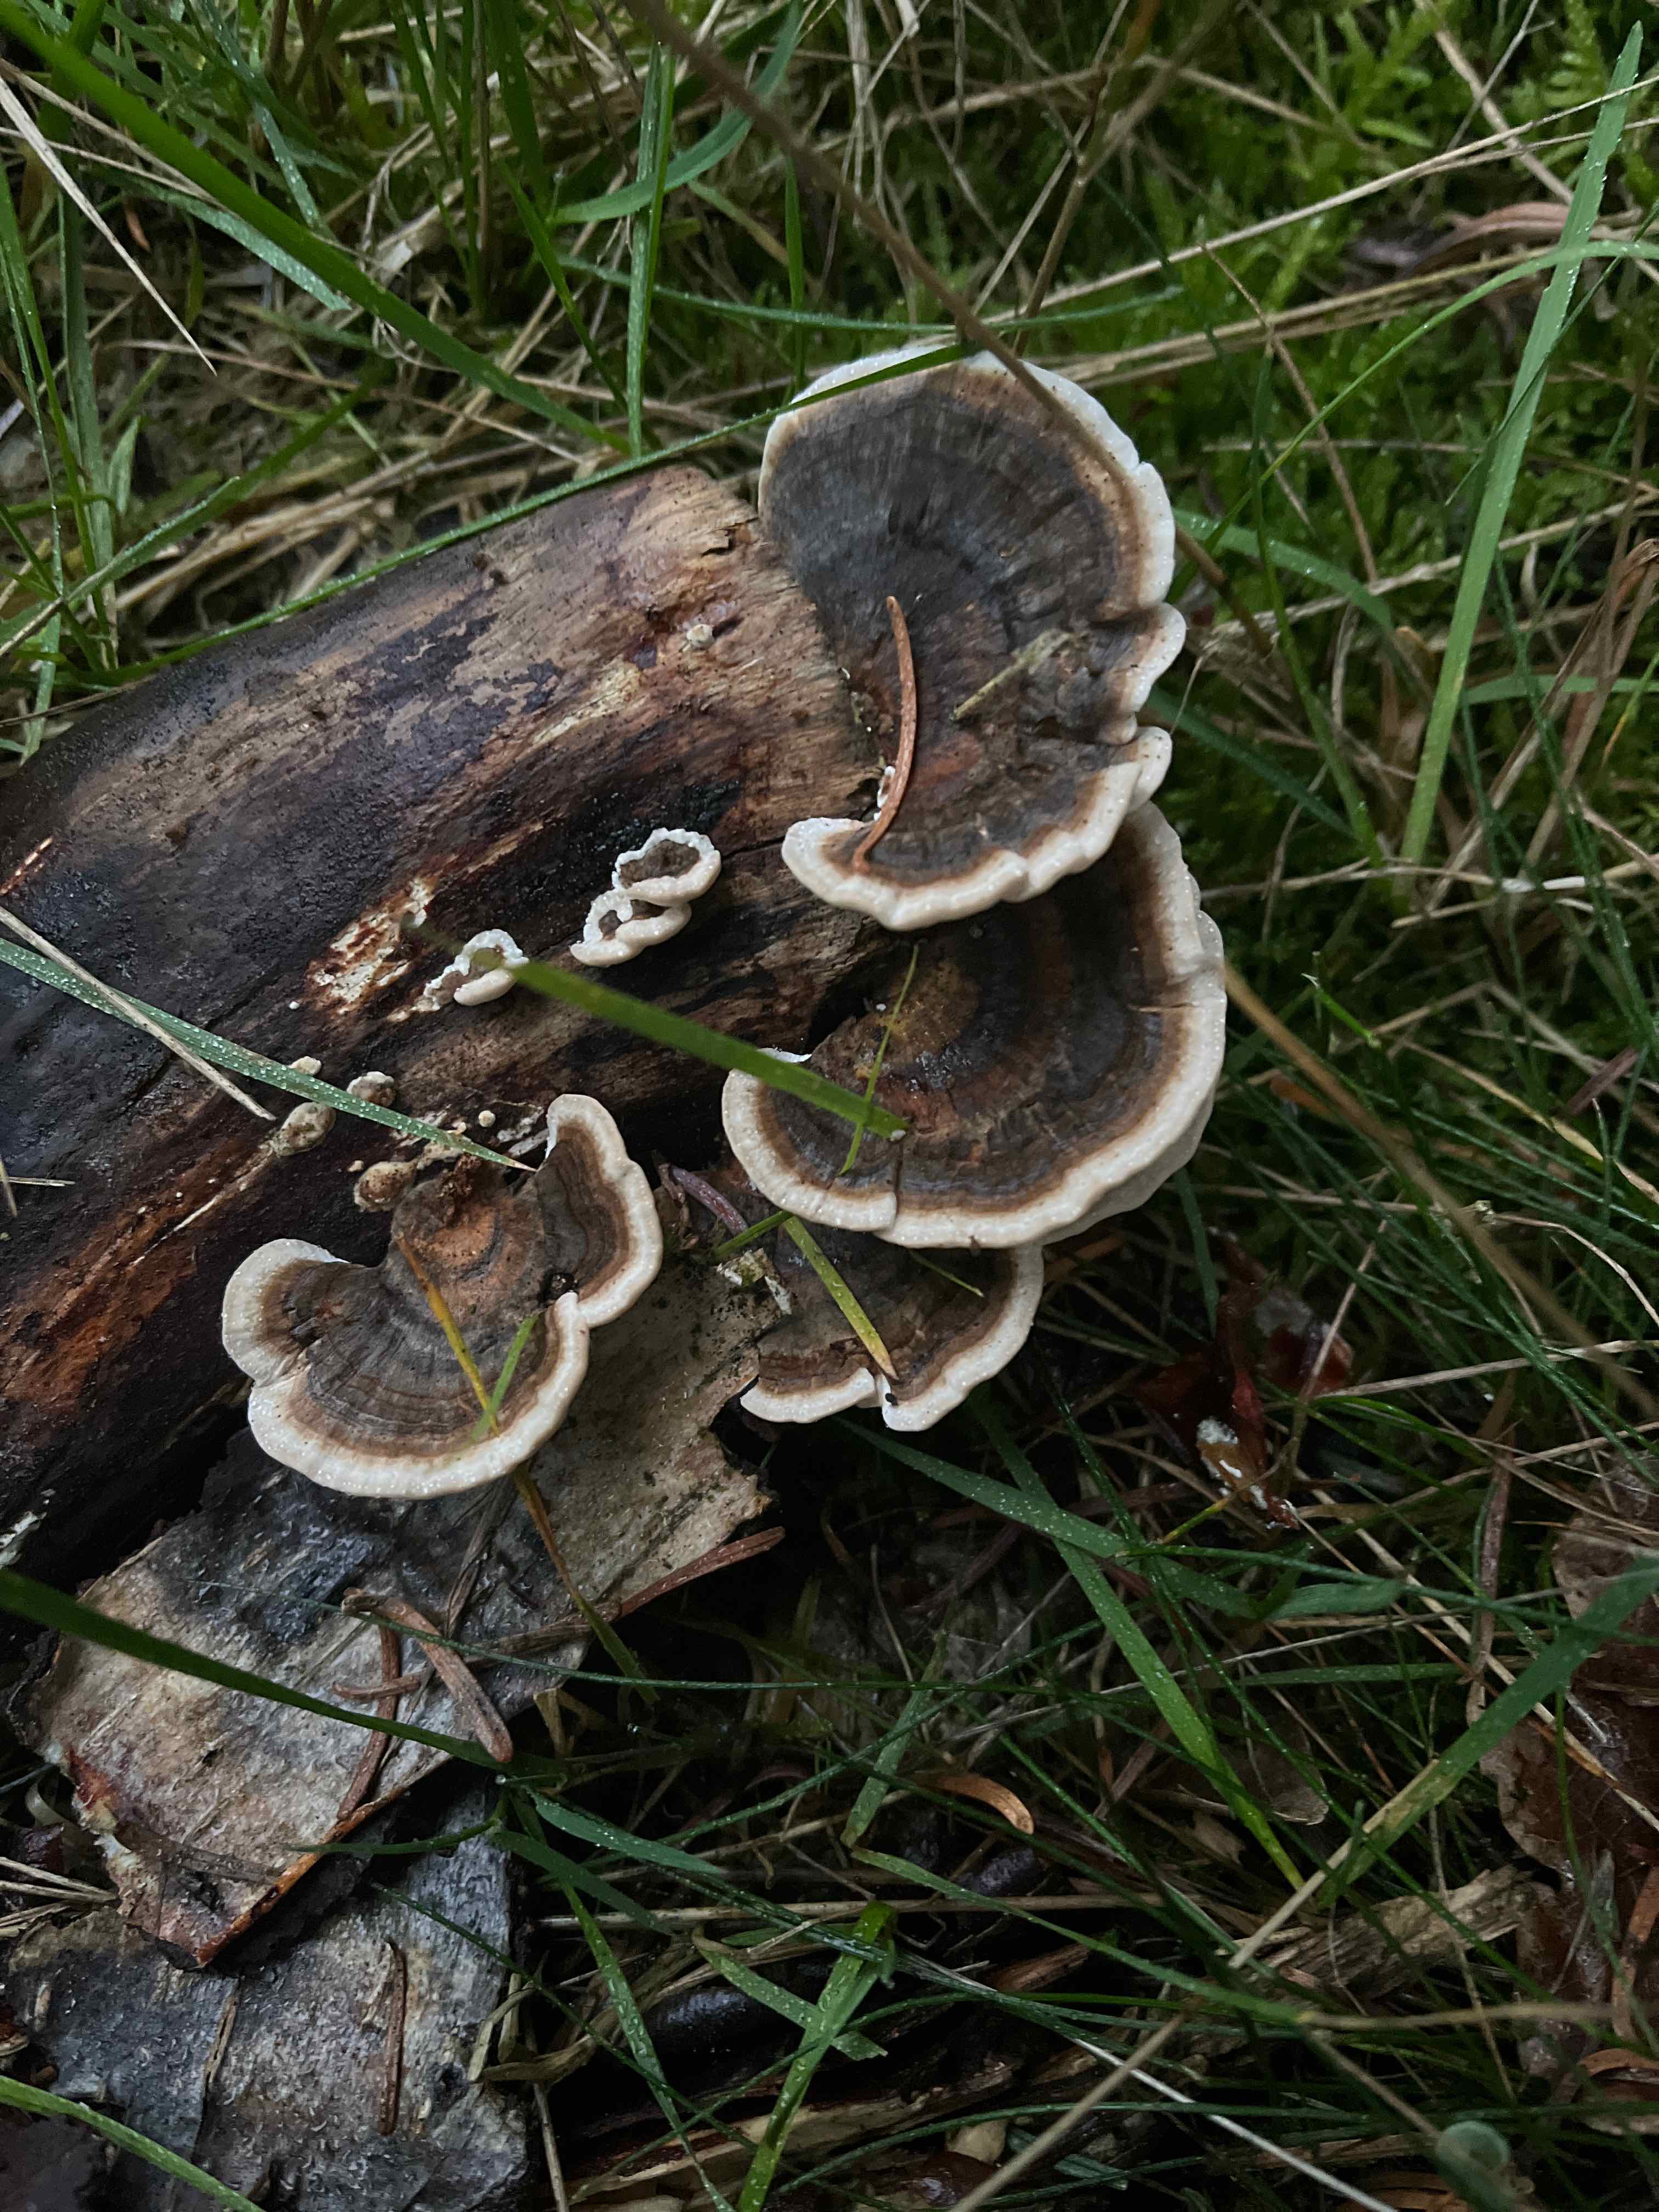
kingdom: Fungi
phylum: Basidiomycota
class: Agaricomycetes
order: Polyporales
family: Polyporaceae
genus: Trametes
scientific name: Trametes versicolor
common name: broget læderporesvamp
